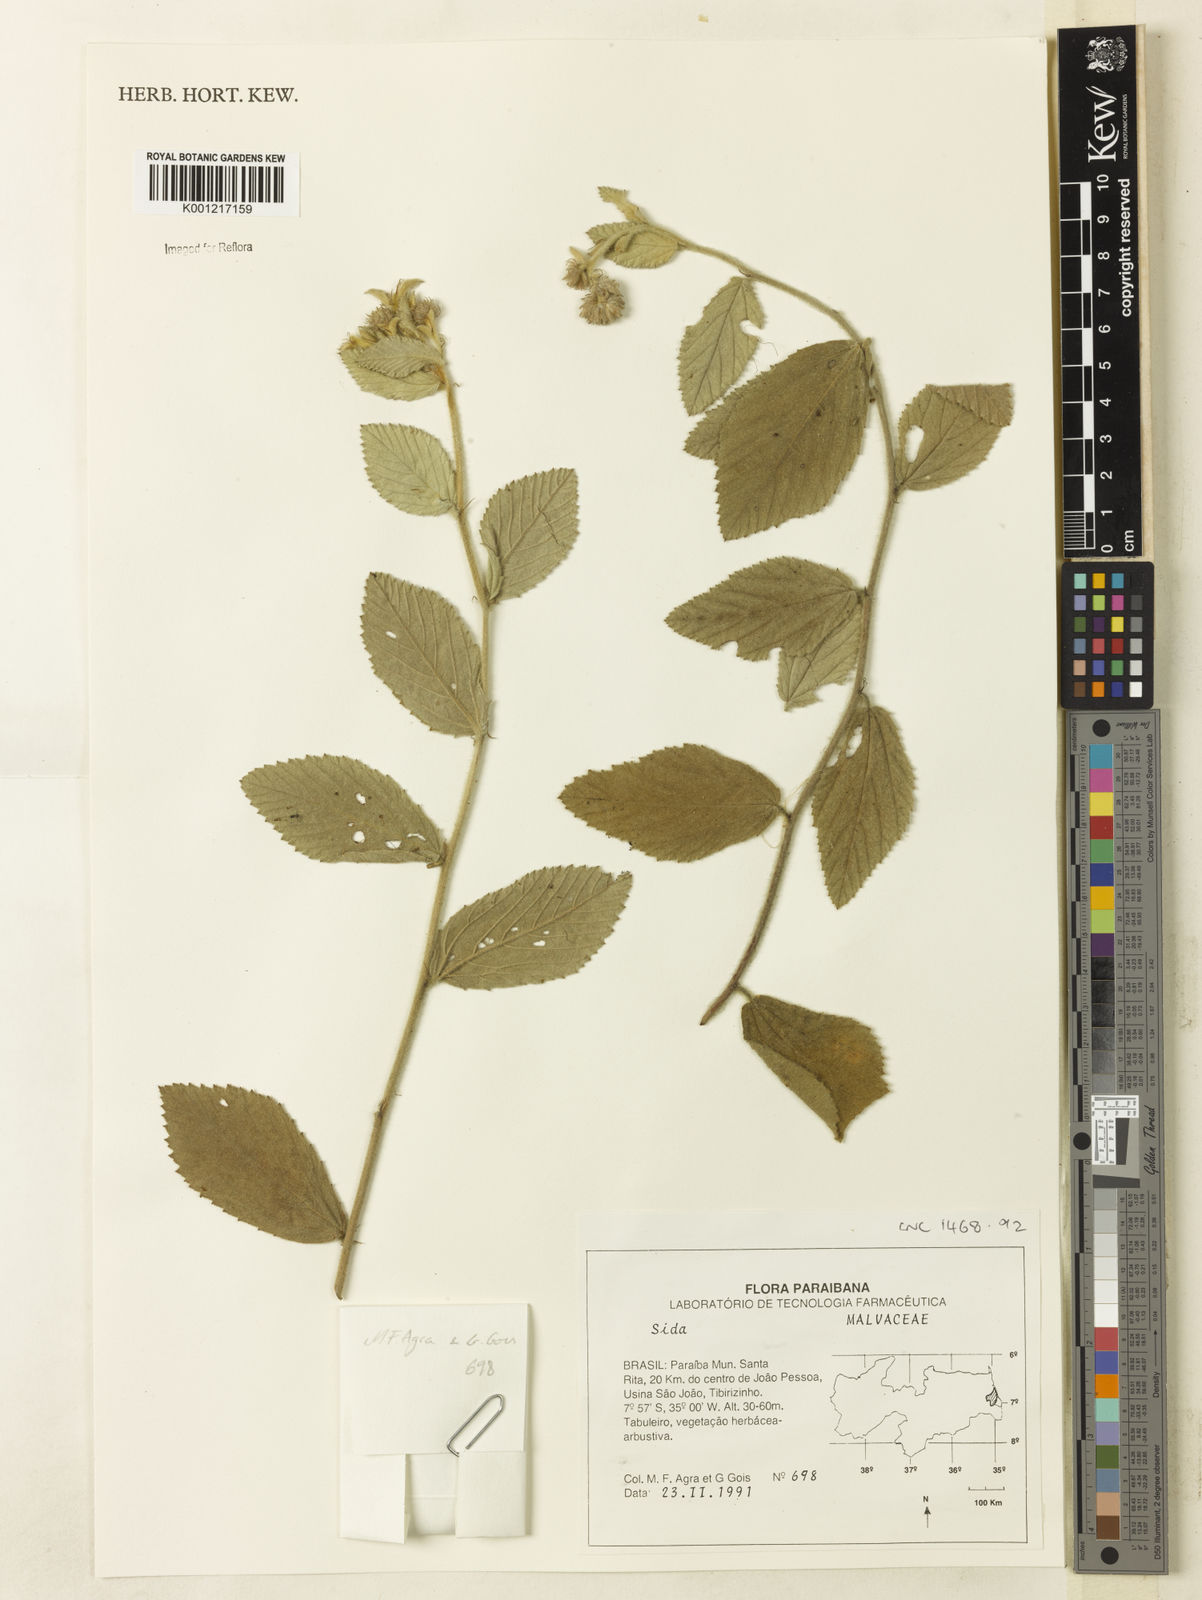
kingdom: Plantae
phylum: Tracheophyta
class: Magnoliopsida
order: Malvales
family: Malvaceae
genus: Sida
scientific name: Sida
